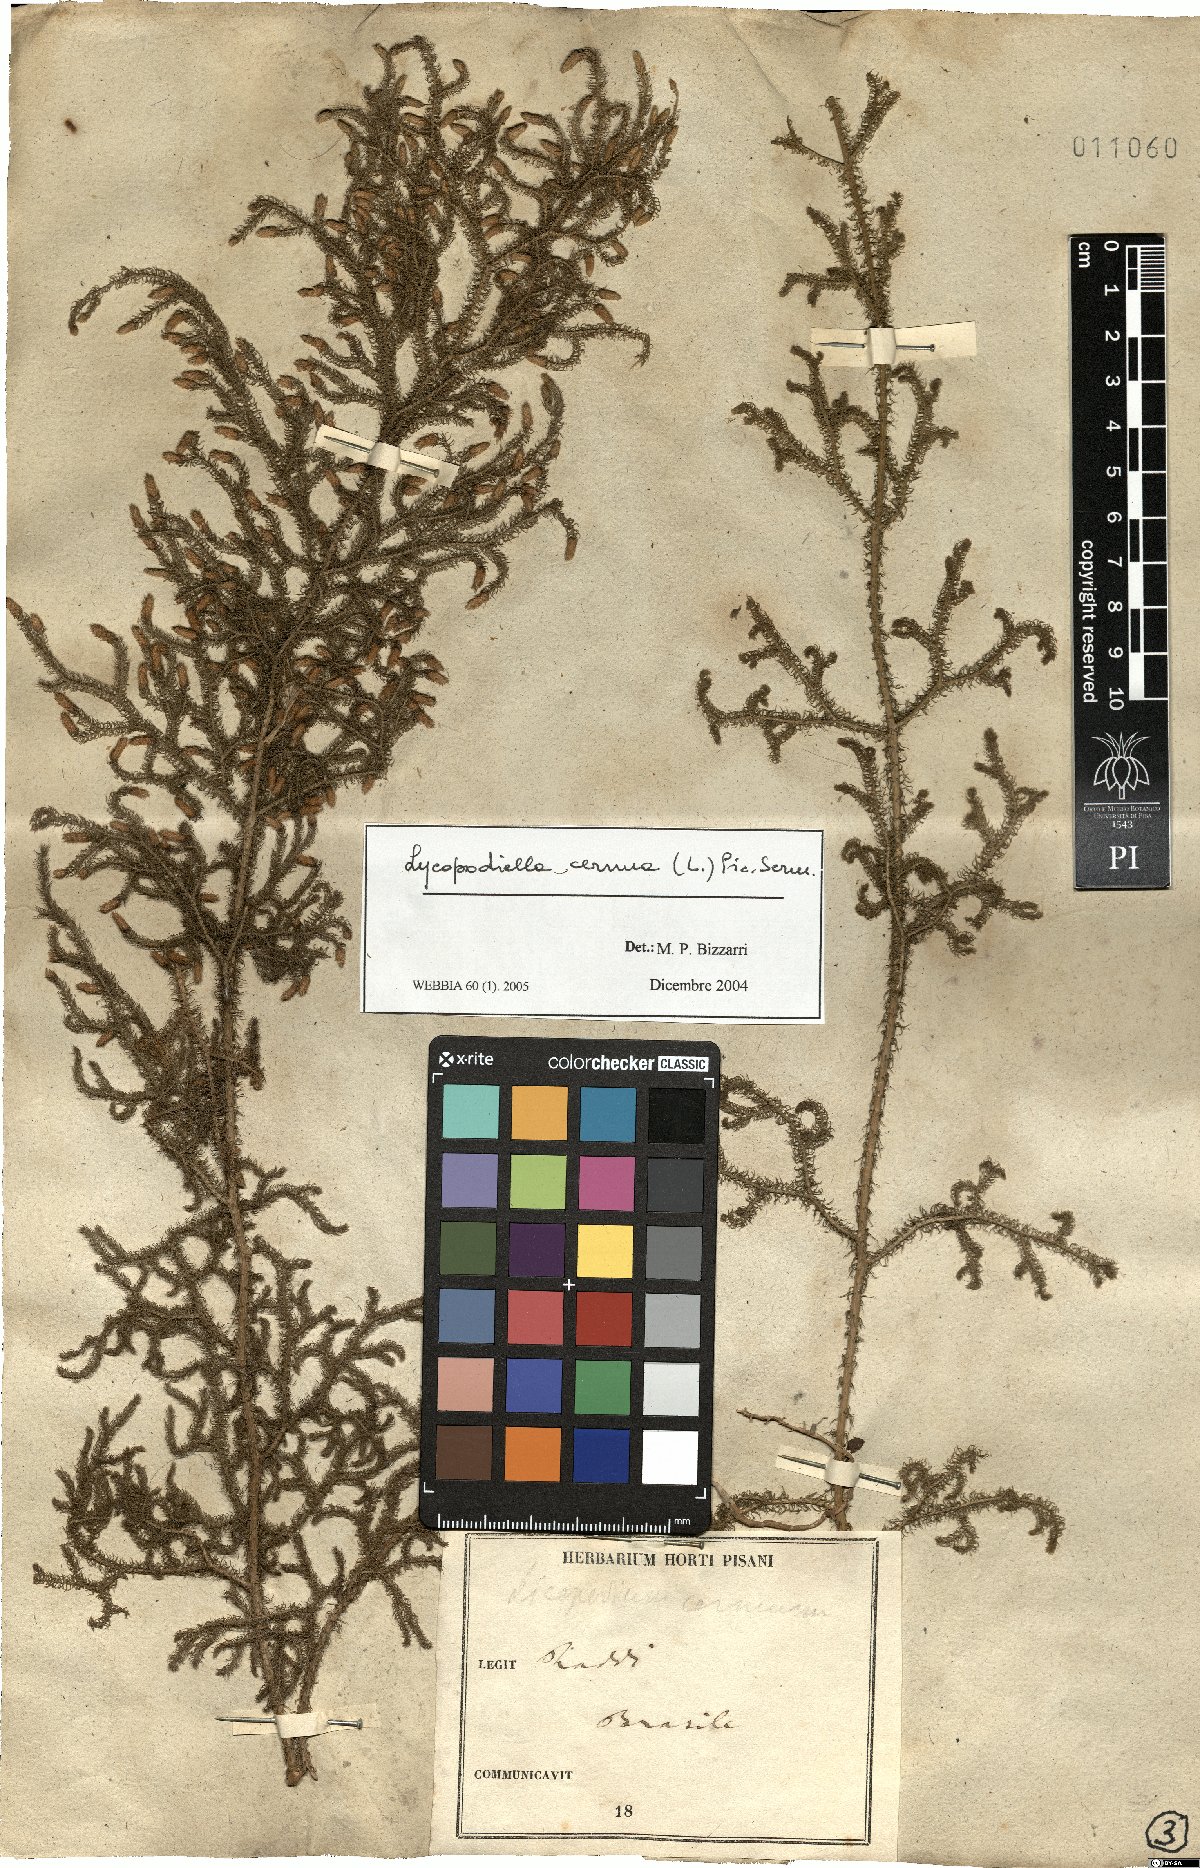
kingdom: Plantae
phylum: Tracheophyta
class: Lycopodiopsida
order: Lycopodiales
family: Lycopodiaceae
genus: Palhinhaea
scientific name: Palhinhaea cernua
